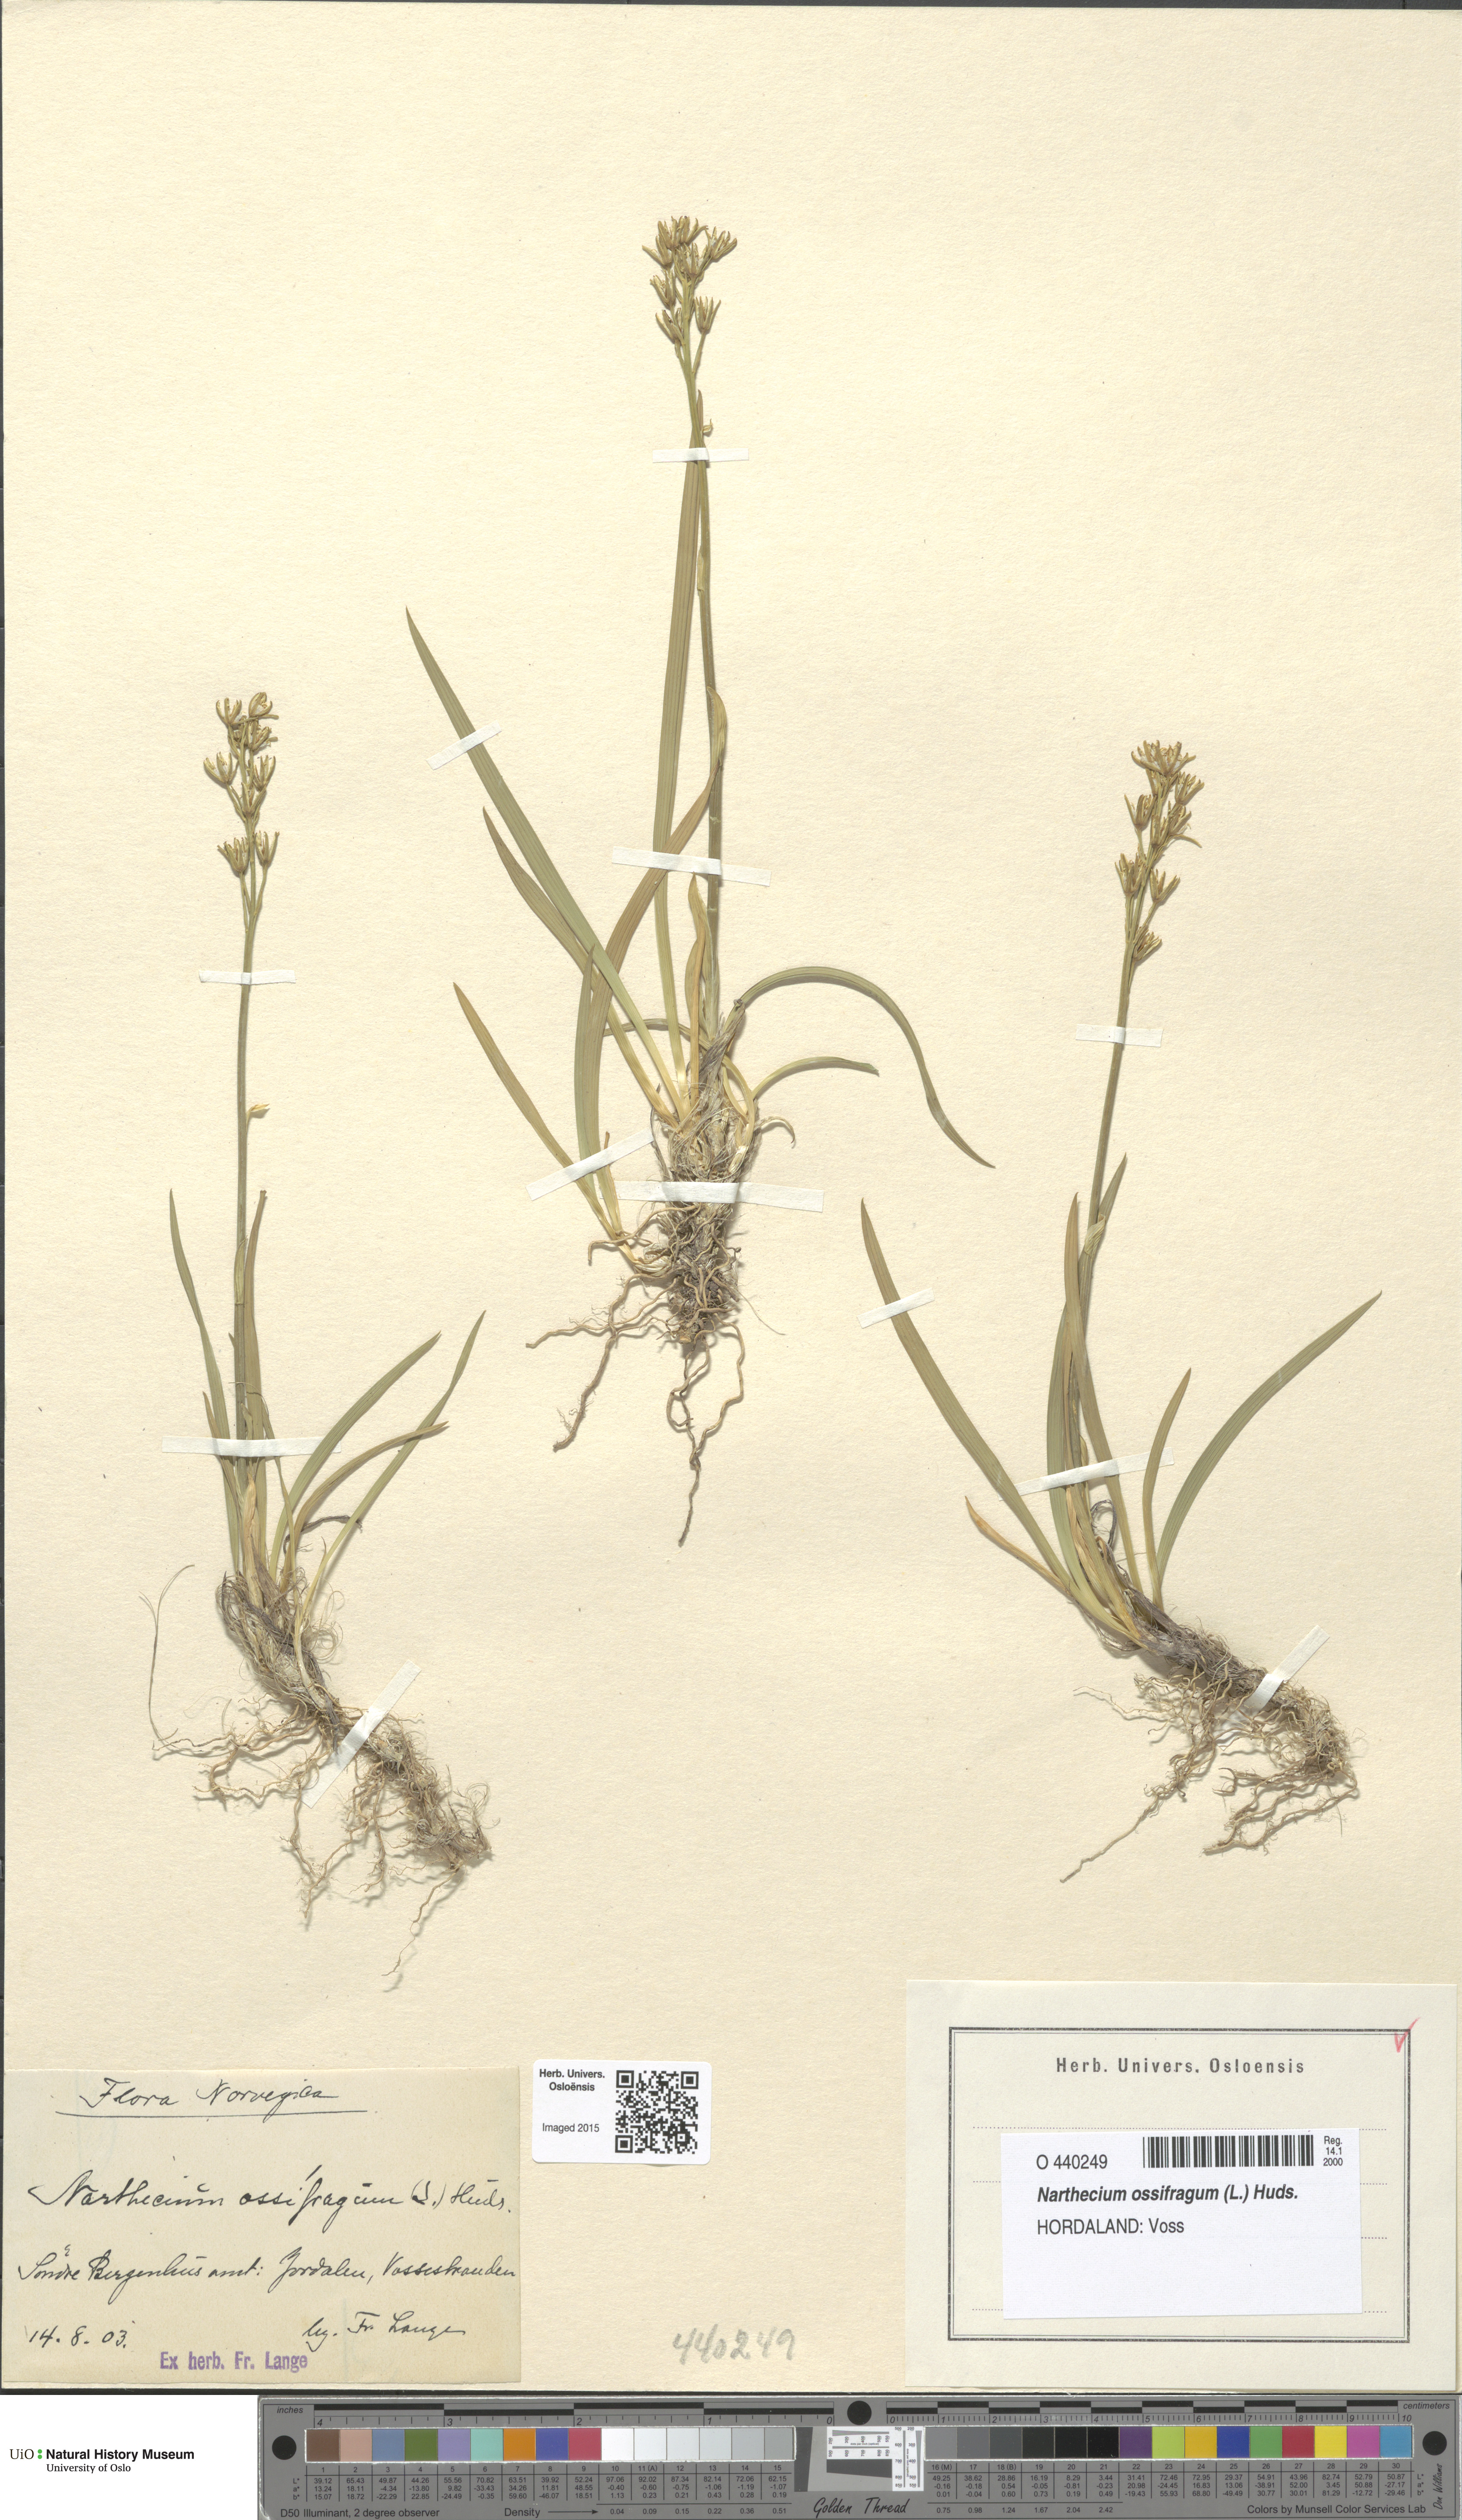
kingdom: Plantae
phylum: Tracheophyta
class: Liliopsida
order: Dioscoreales
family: Nartheciaceae
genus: Narthecium
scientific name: Narthecium ossifragum
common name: Bog asphodel
